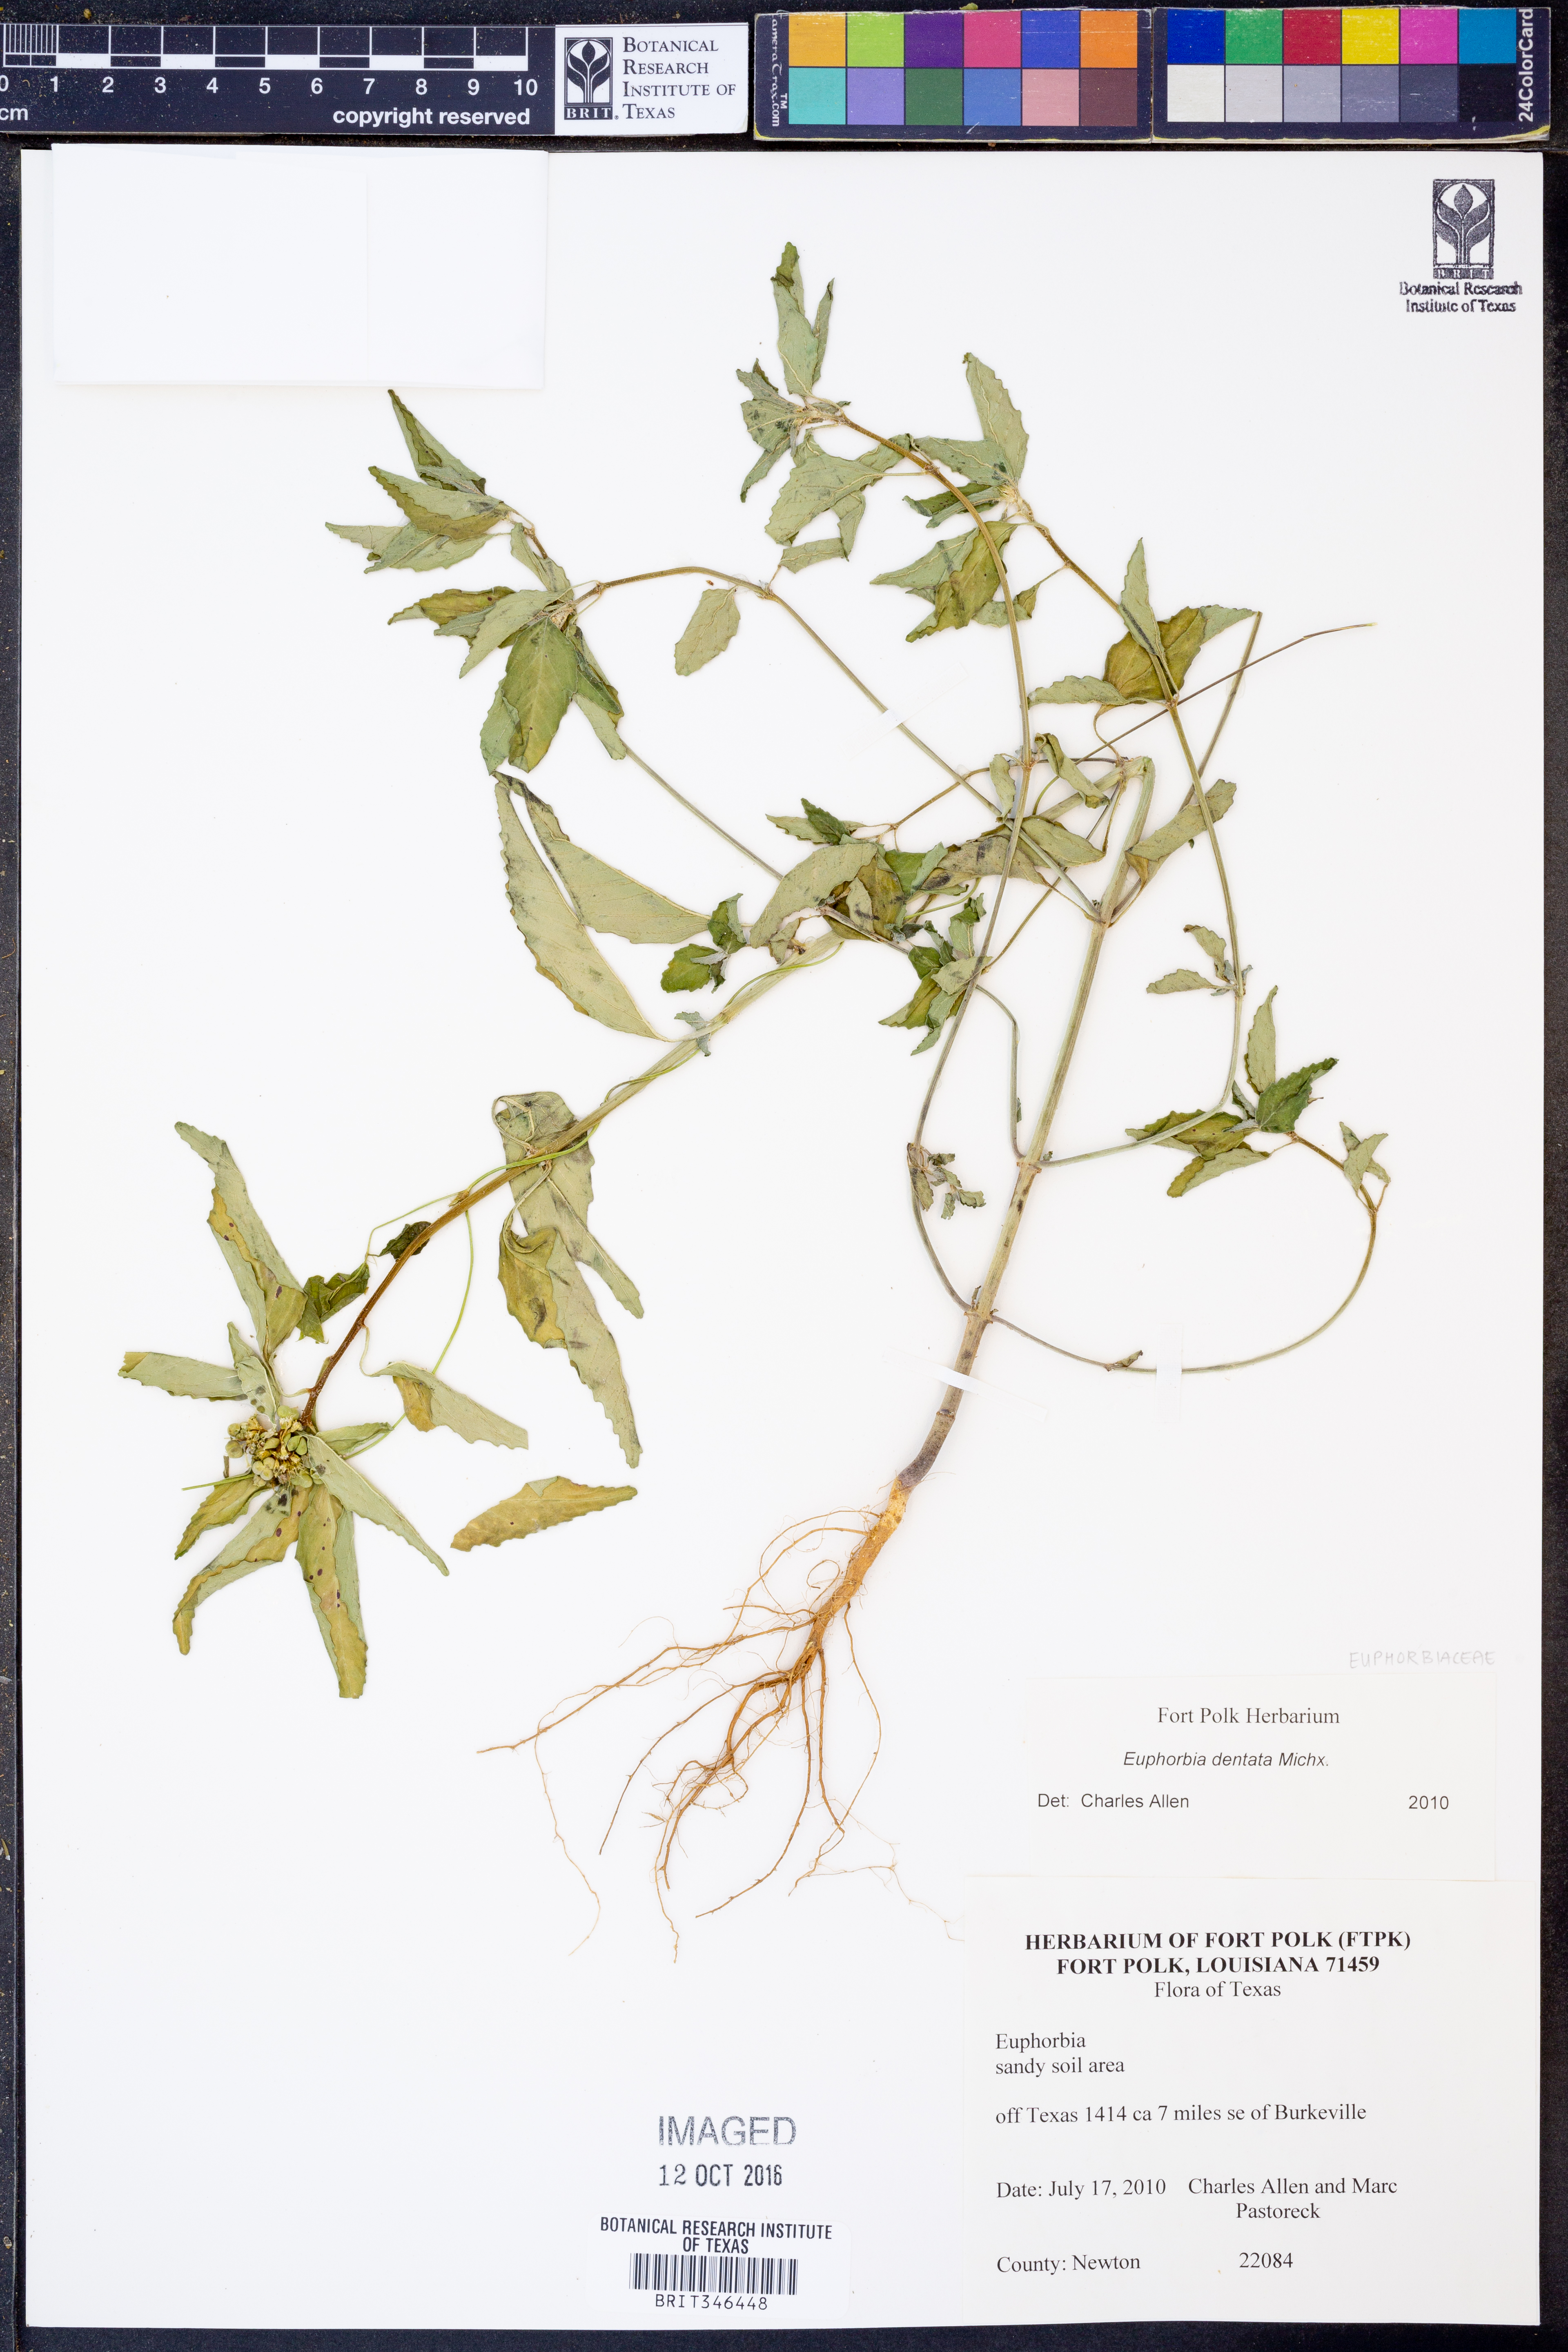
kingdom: Plantae
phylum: Tracheophyta
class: Magnoliopsida
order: Malpighiales
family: Euphorbiaceae
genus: Euphorbia
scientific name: Euphorbia dentata
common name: Dentate spurge
